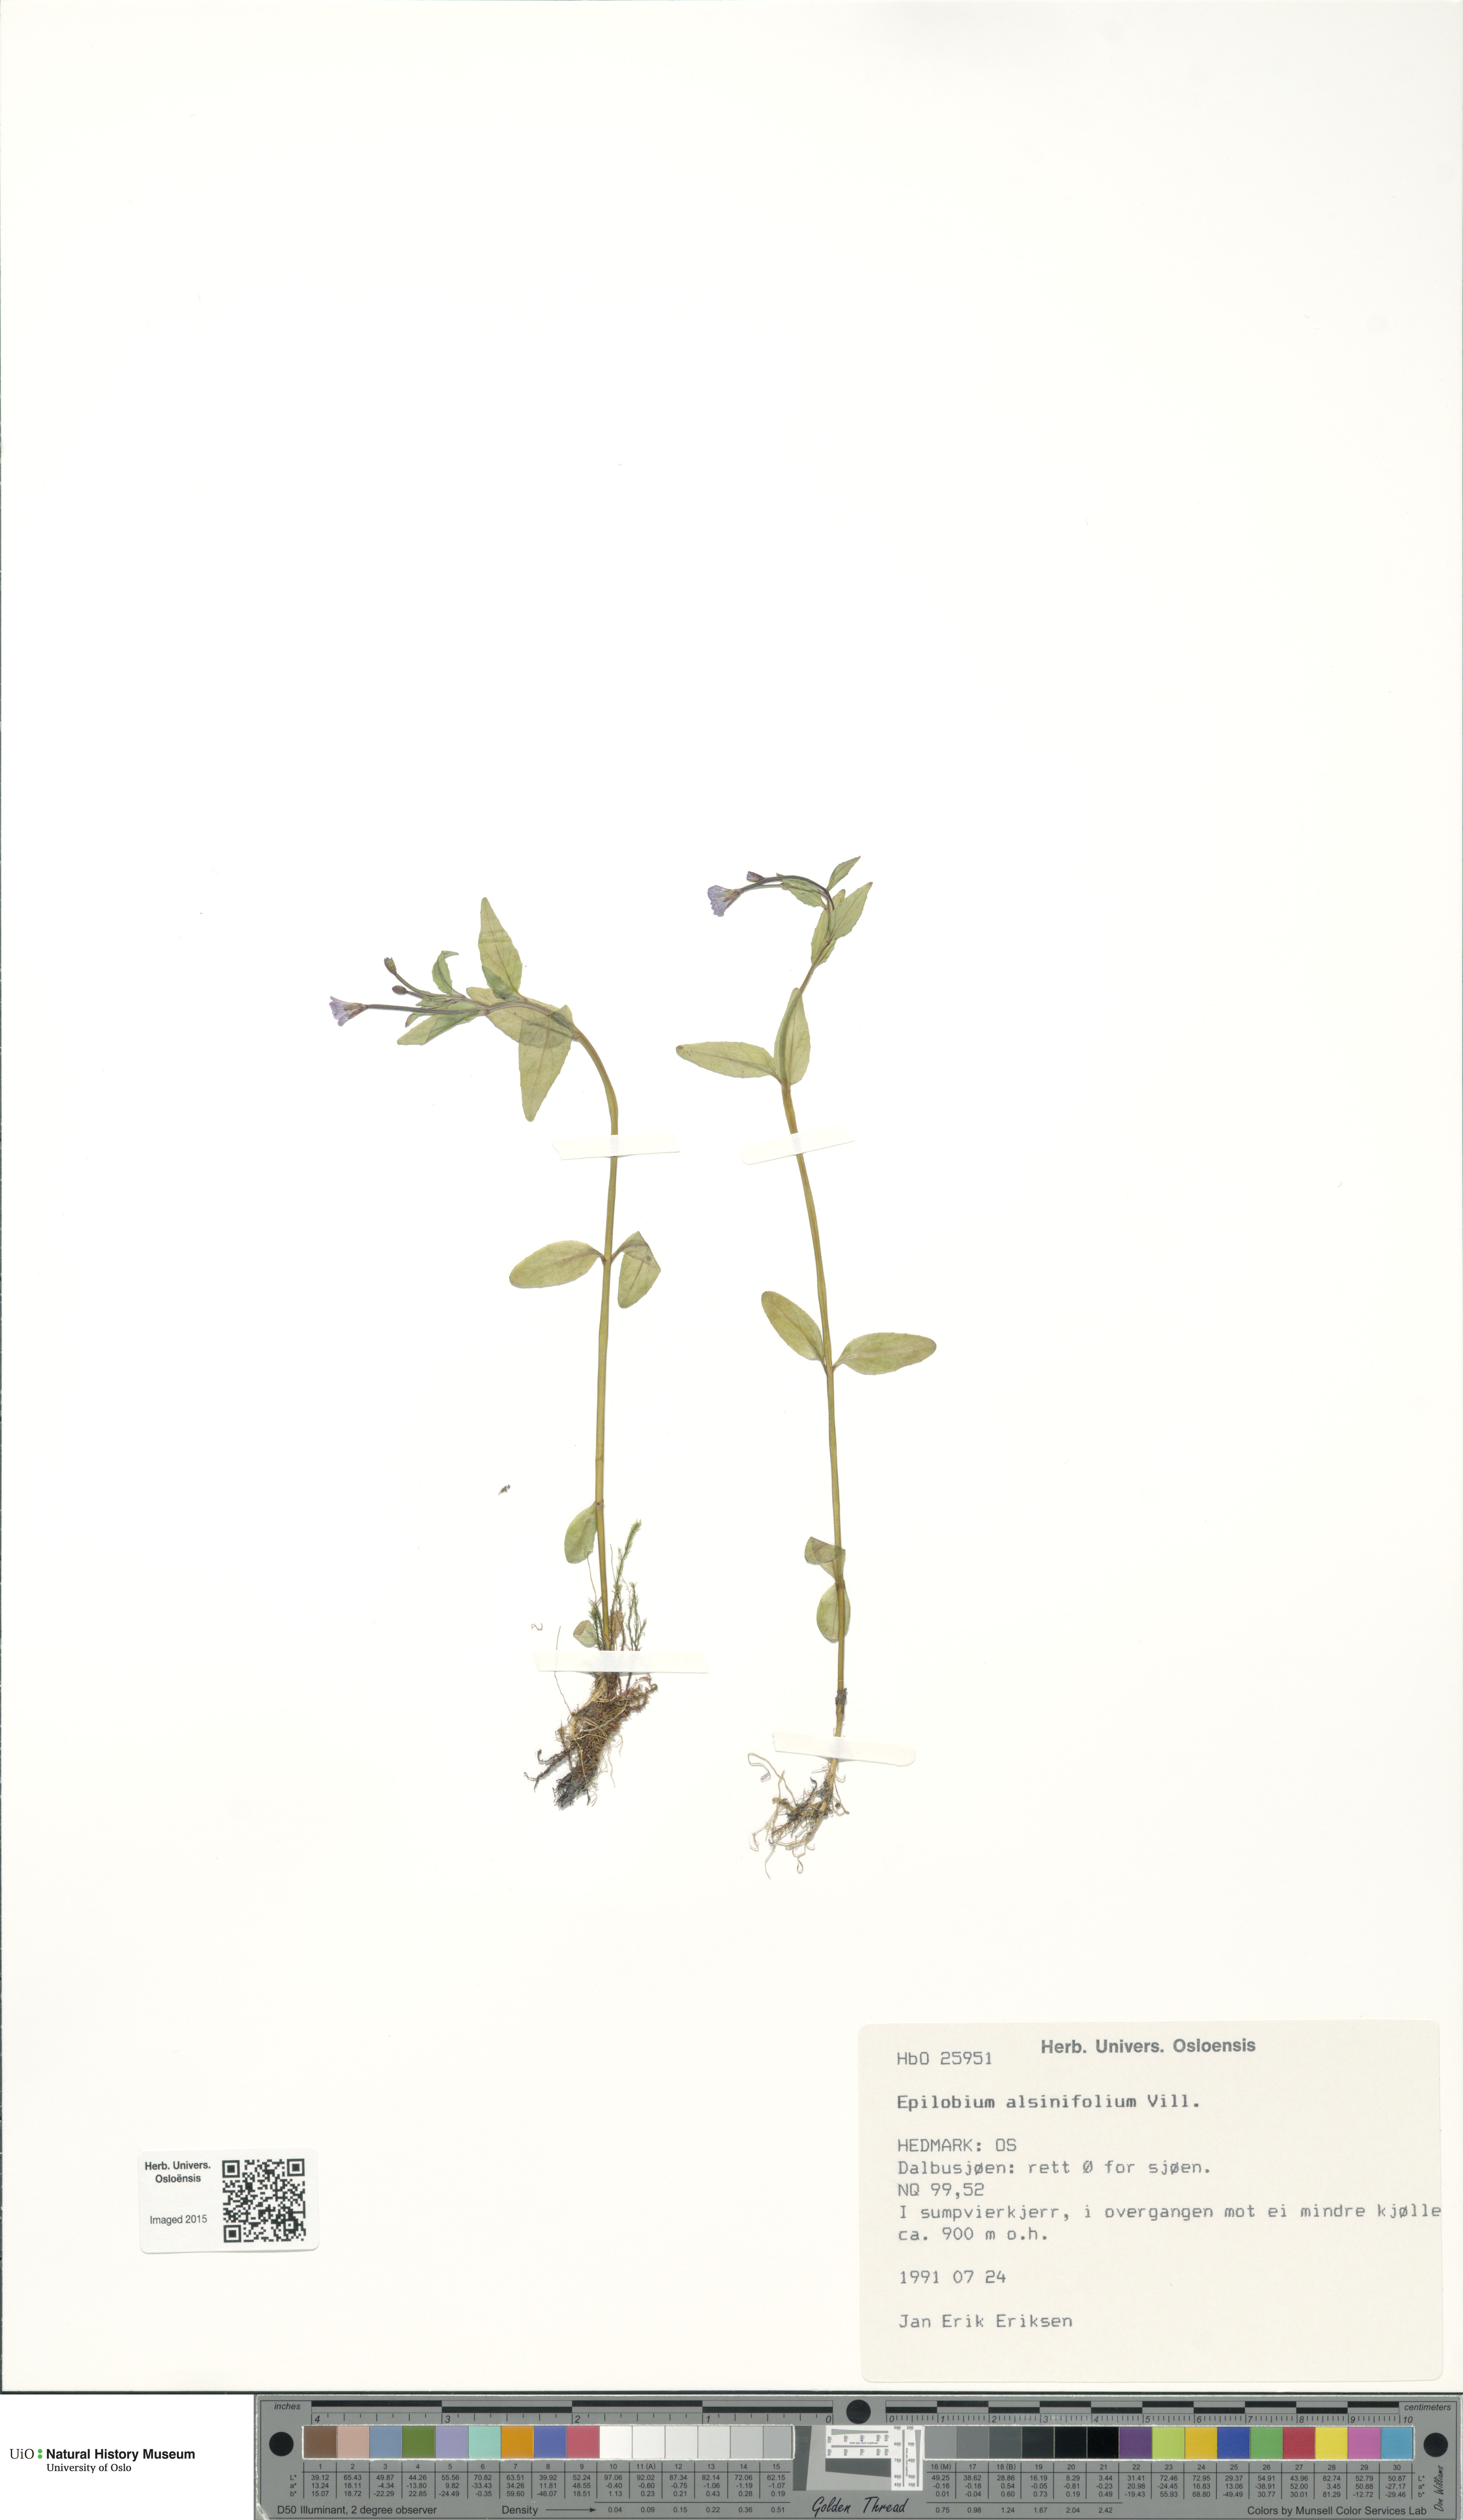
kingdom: Plantae
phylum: Tracheophyta
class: Magnoliopsida
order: Myrtales
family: Onagraceae
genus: Epilobium
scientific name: Epilobium alsinifolium
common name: Chickweed willowherb
